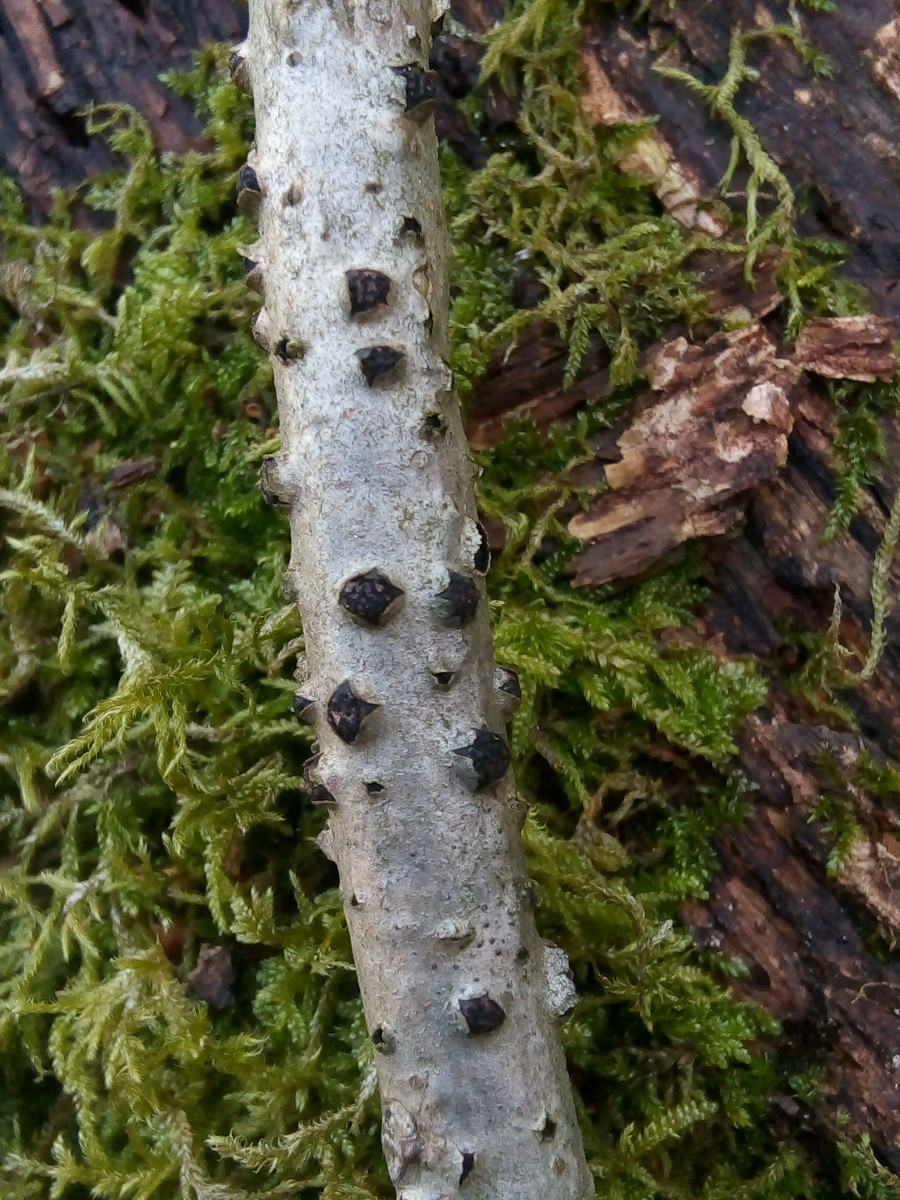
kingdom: Fungi
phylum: Ascomycota
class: Sordariomycetes
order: Xylariales
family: Diatrypaceae
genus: Diatrypella
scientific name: Diatrypella quercina
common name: ege-kulskorpe
